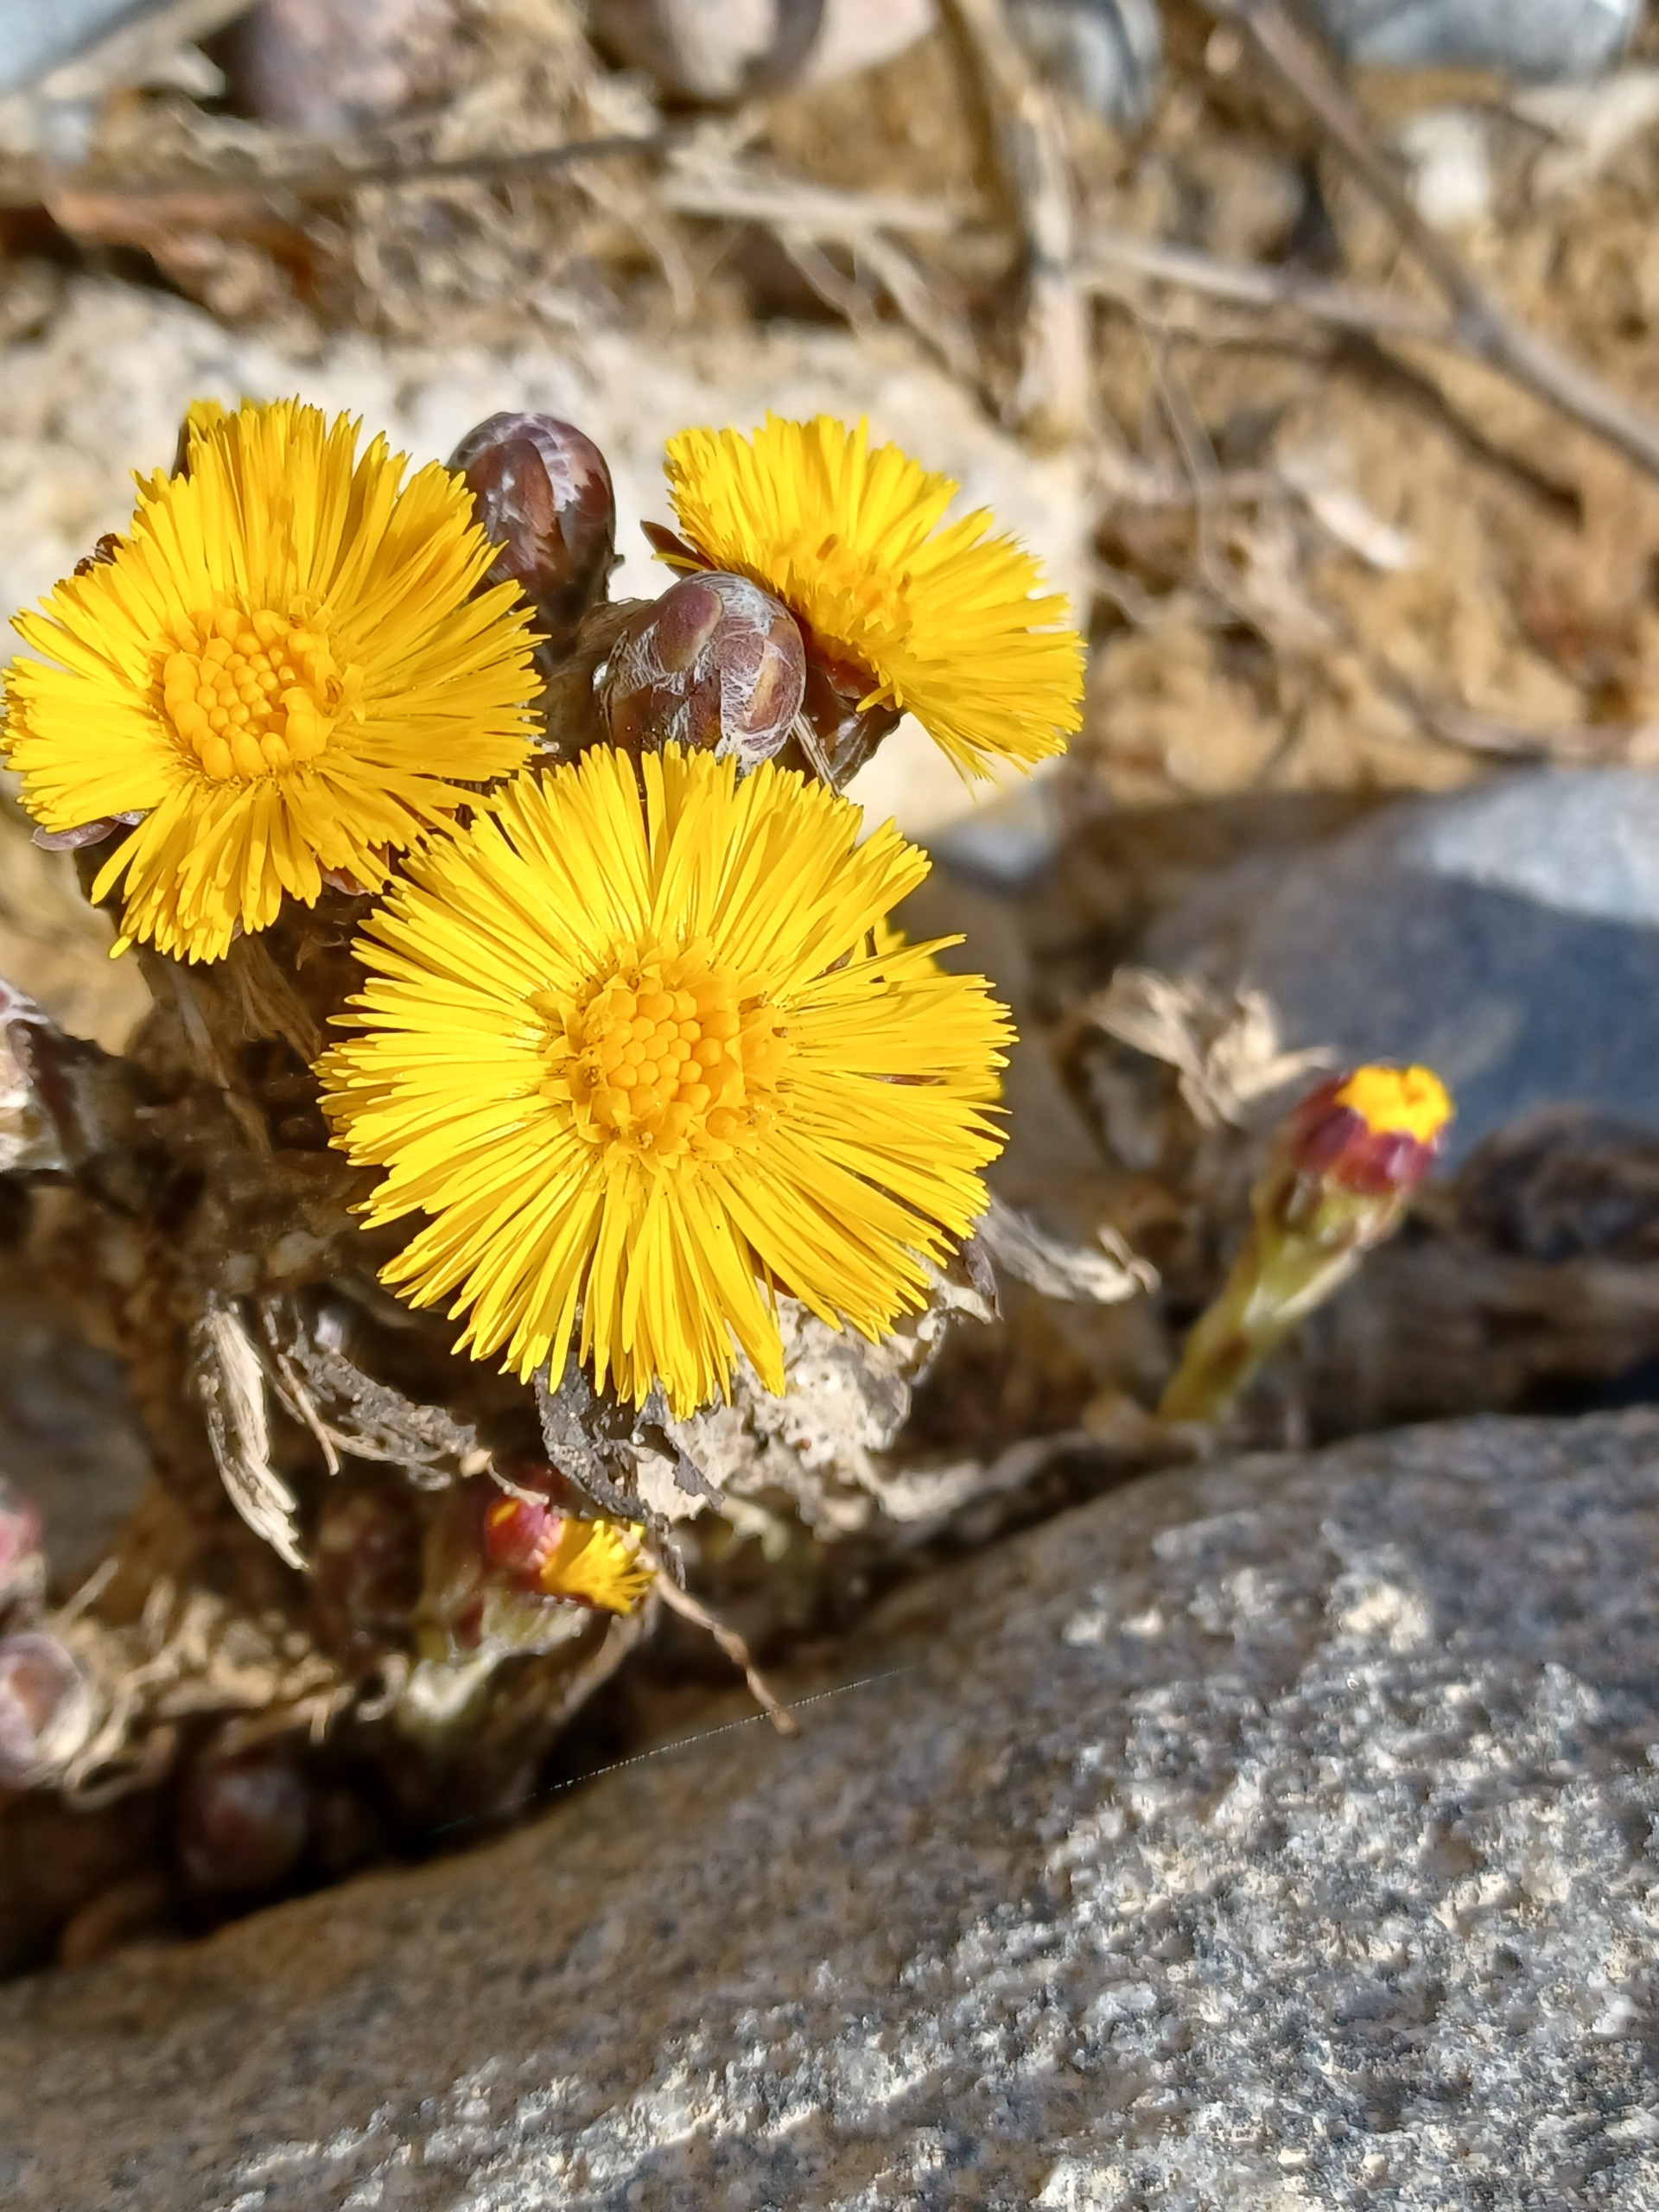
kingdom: Plantae
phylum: Tracheophyta
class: Magnoliopsida
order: Asterales
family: Asteraceae
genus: Tussilago
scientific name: Tussilago farfara
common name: Følfod
